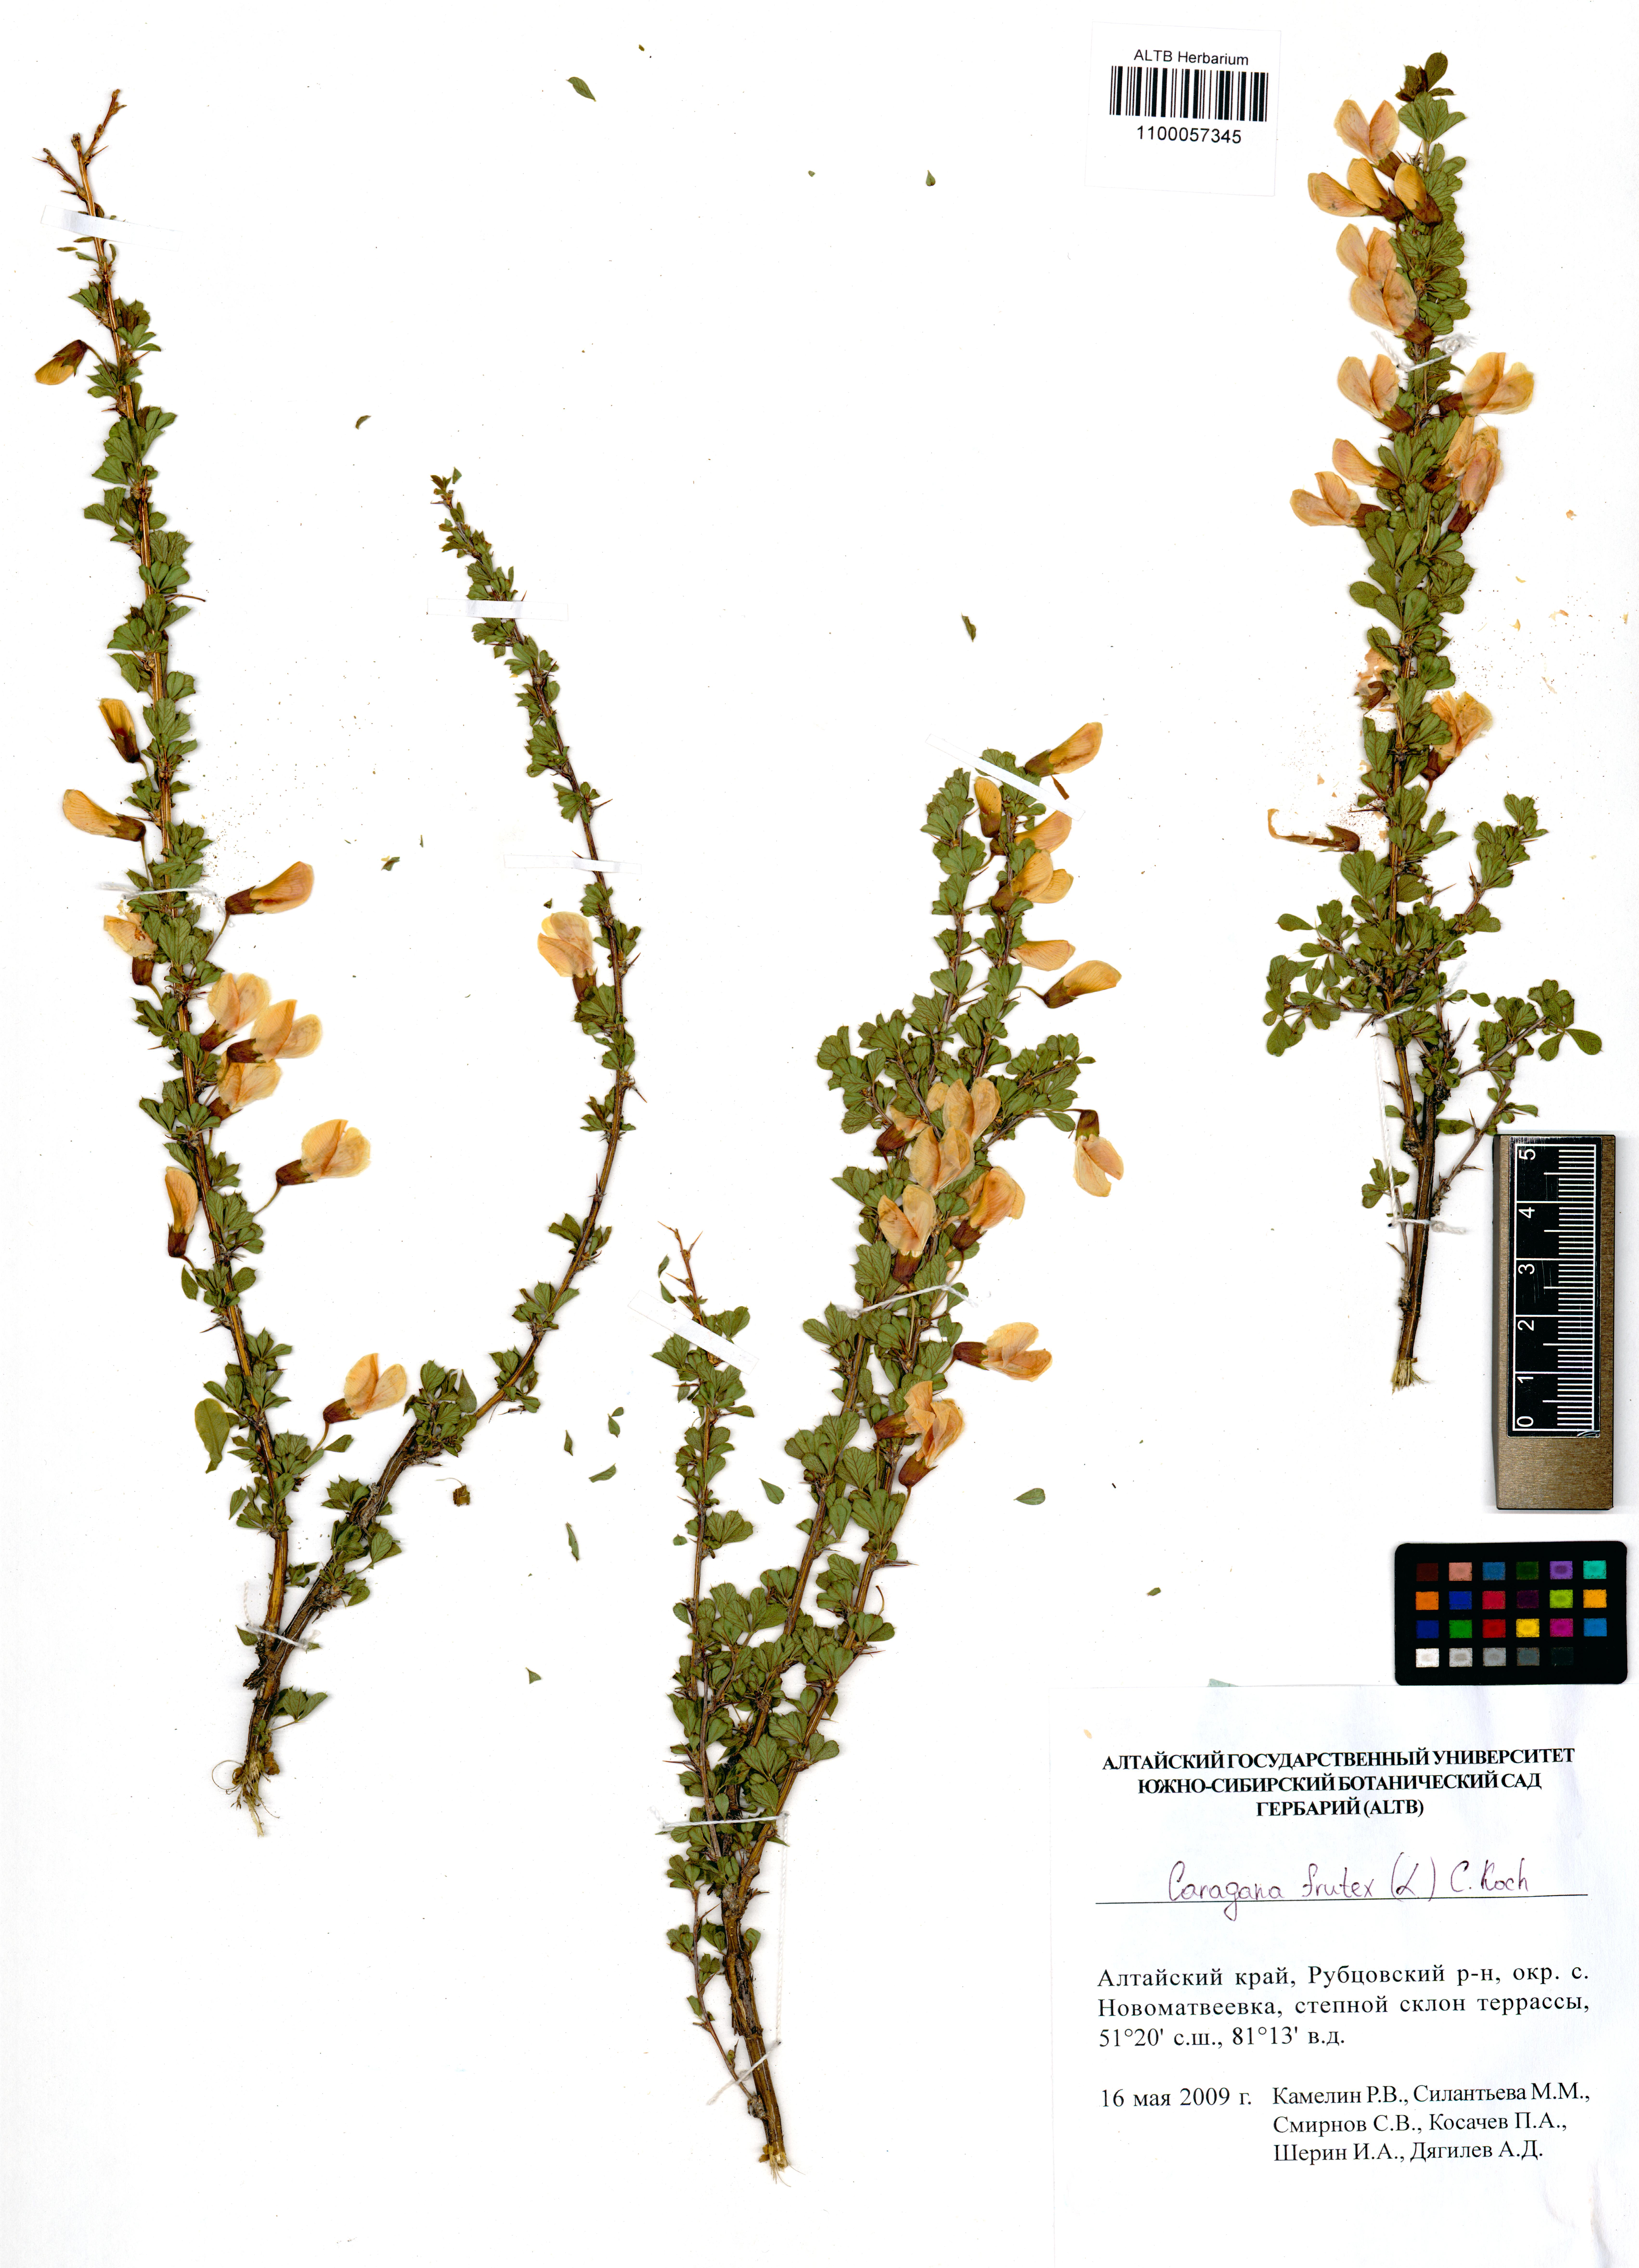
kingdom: Plantae
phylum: Tracheophyta
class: Magnoliopsida
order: Fabales
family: Fabaceae
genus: Caragana
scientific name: Caragana frutex
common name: Russian peashrub
